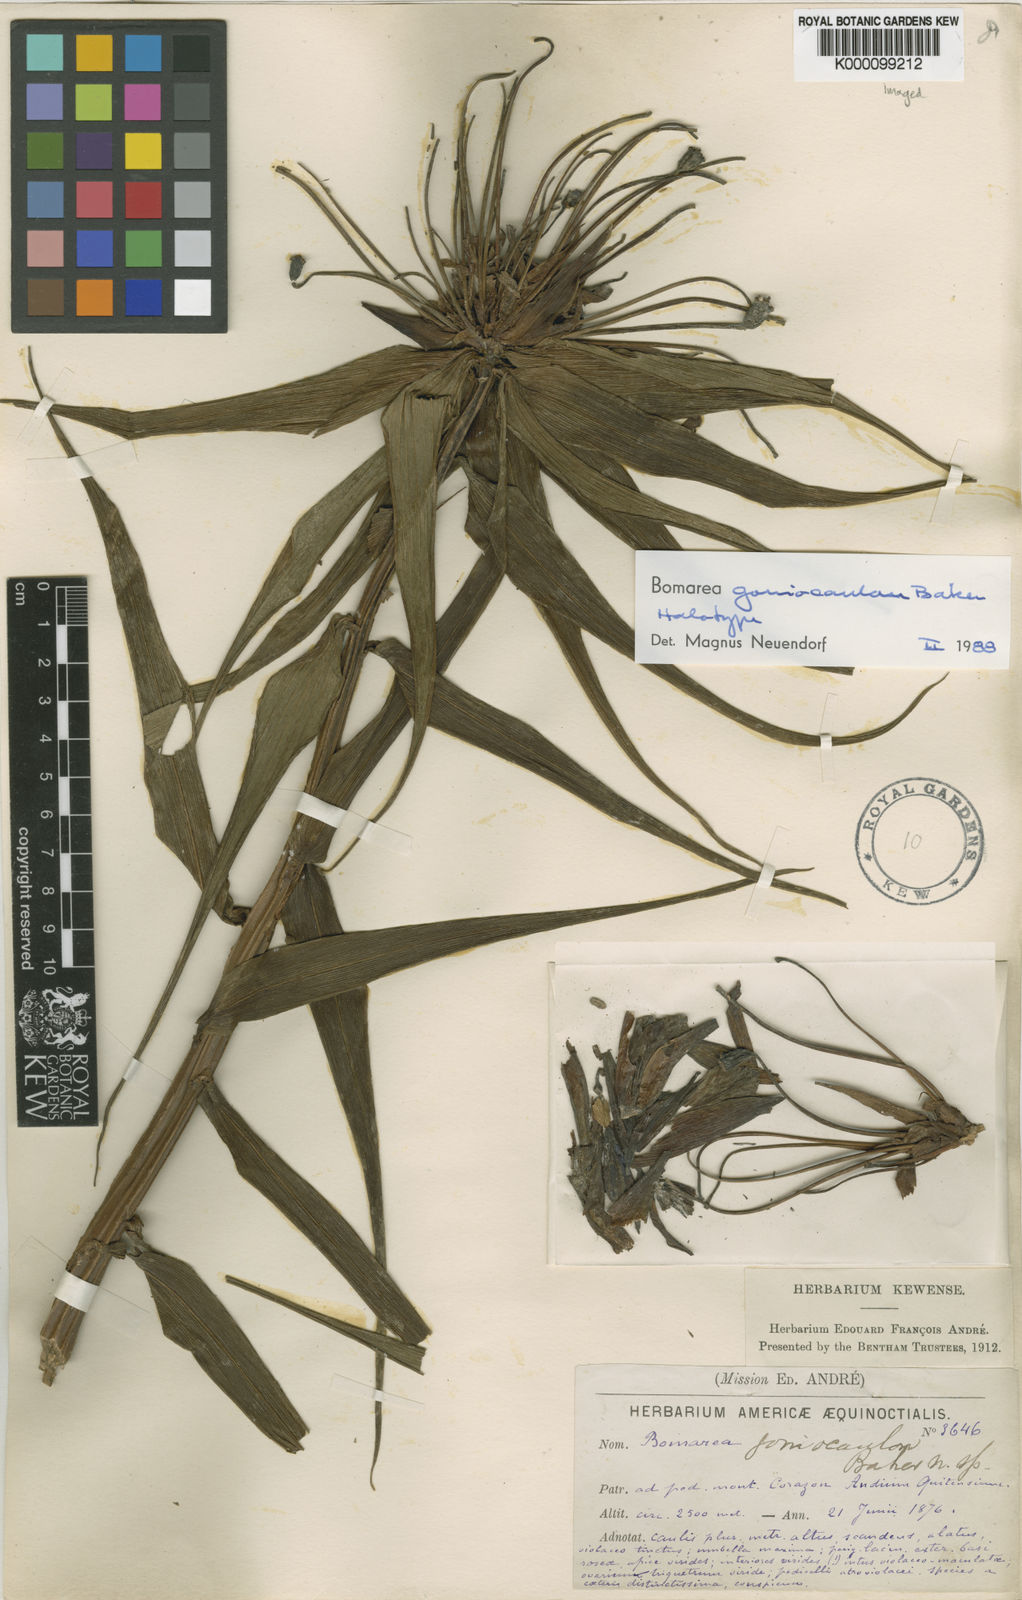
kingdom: Plantae
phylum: Tracheophyta
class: Liliopsida
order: Liliales
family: Alstroemeriaceae
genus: Bomarea
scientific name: Bomarea goniocaulon
